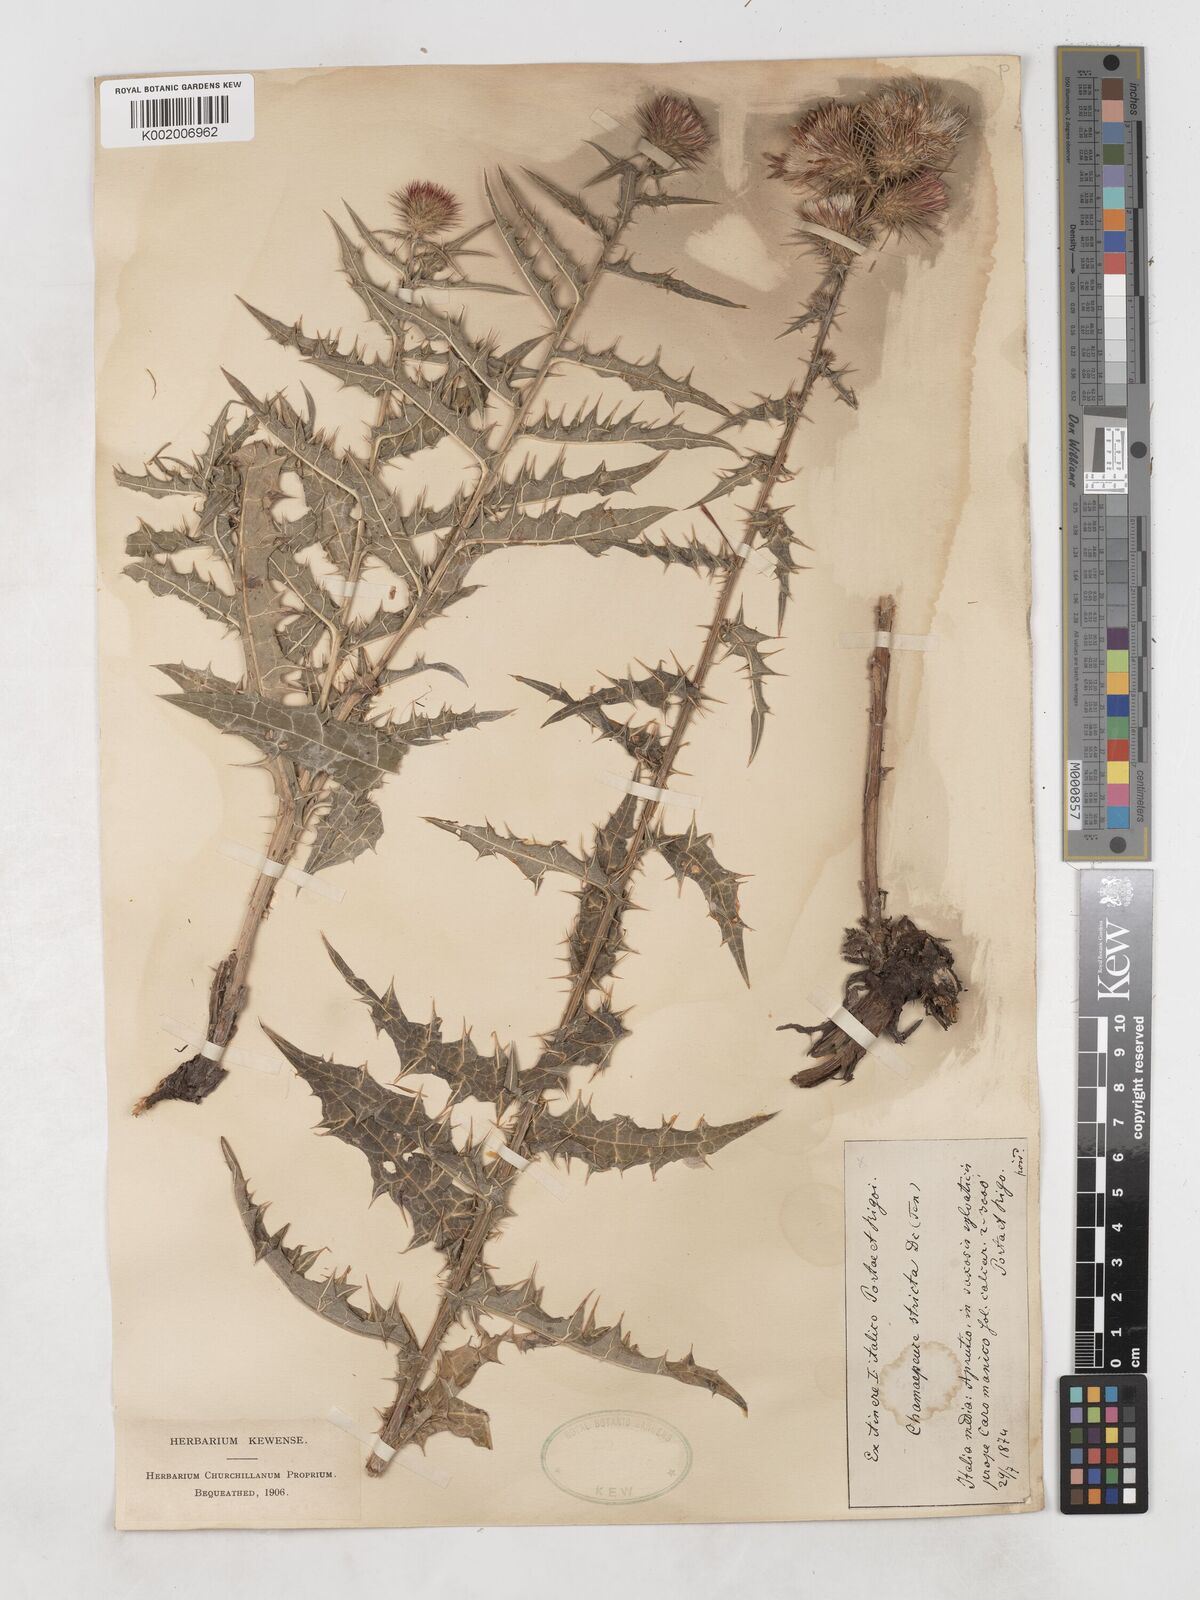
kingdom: Plantae
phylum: Tracheophyta
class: Magnoliopsida
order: Asterales
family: Asteraceae
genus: Ptilostemon
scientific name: Ptilostemon strictus
